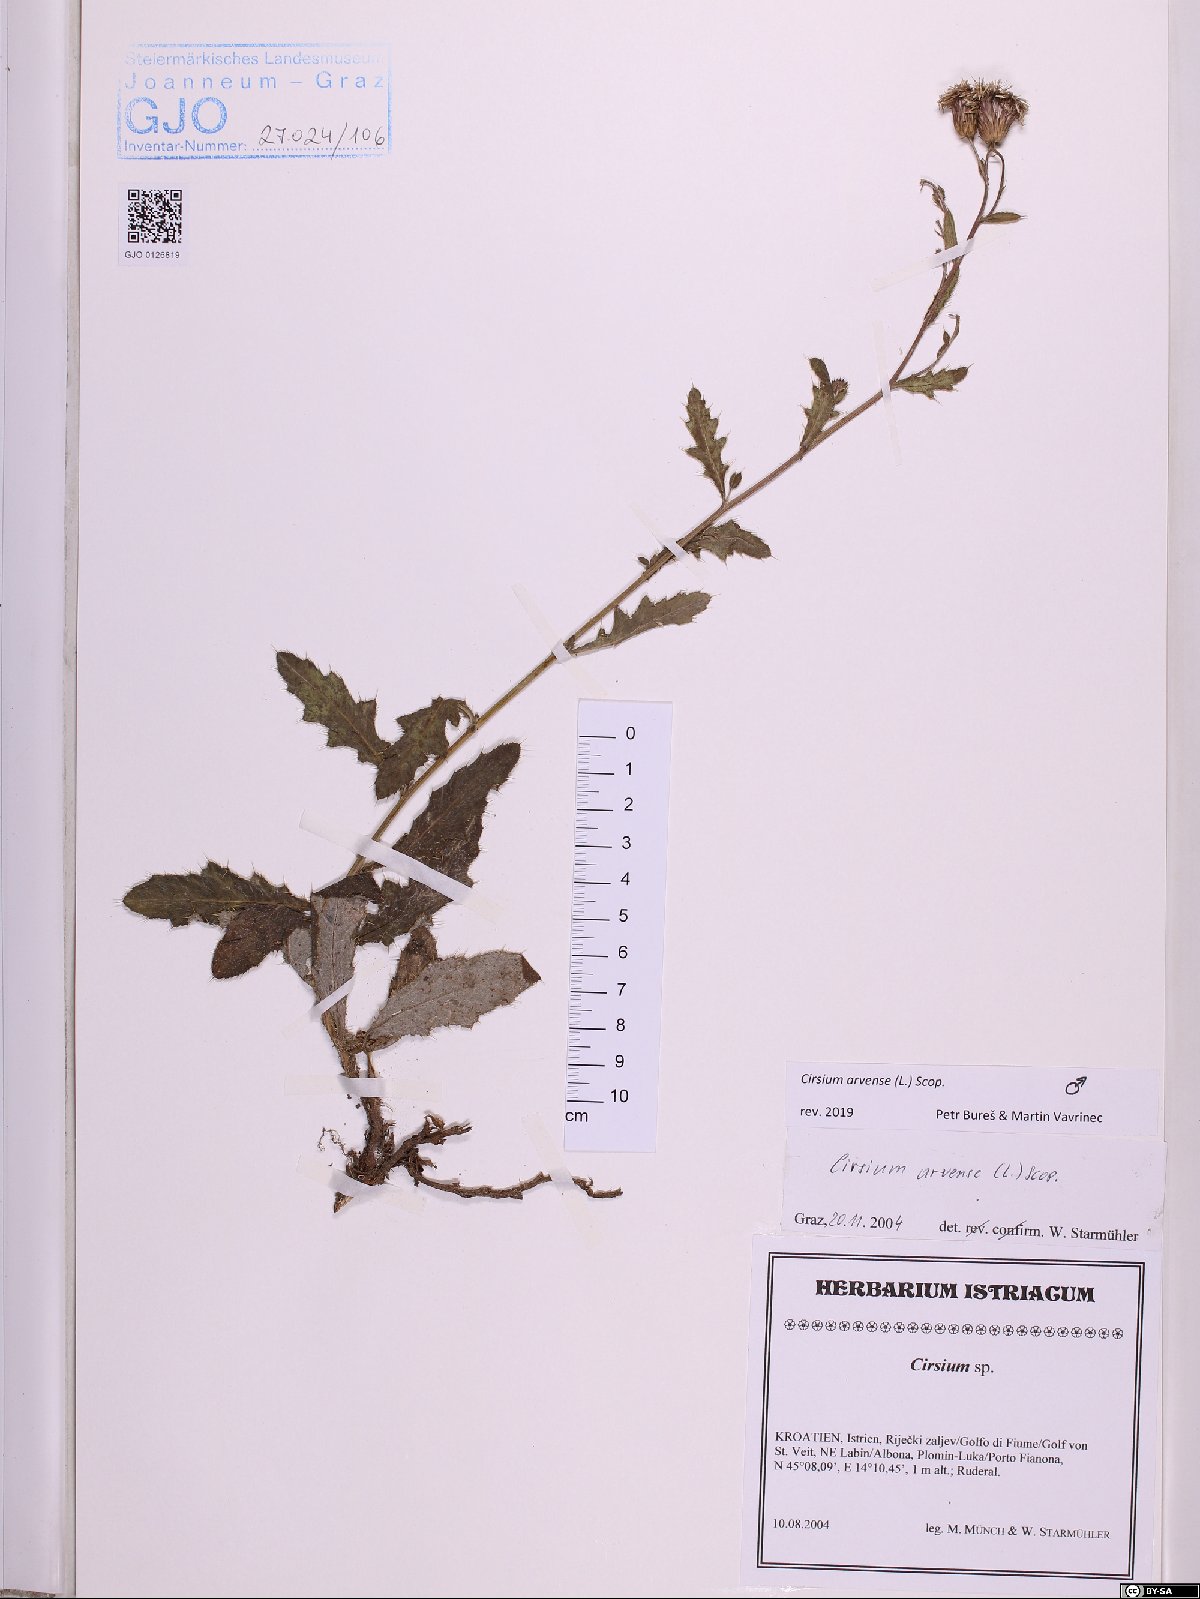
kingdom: Plantae
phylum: Tracheophyta
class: Magnoliopsida
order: Asterales
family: Asteraceae
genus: Cirsium
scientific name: Cirsium arvense
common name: Creeping thistle
